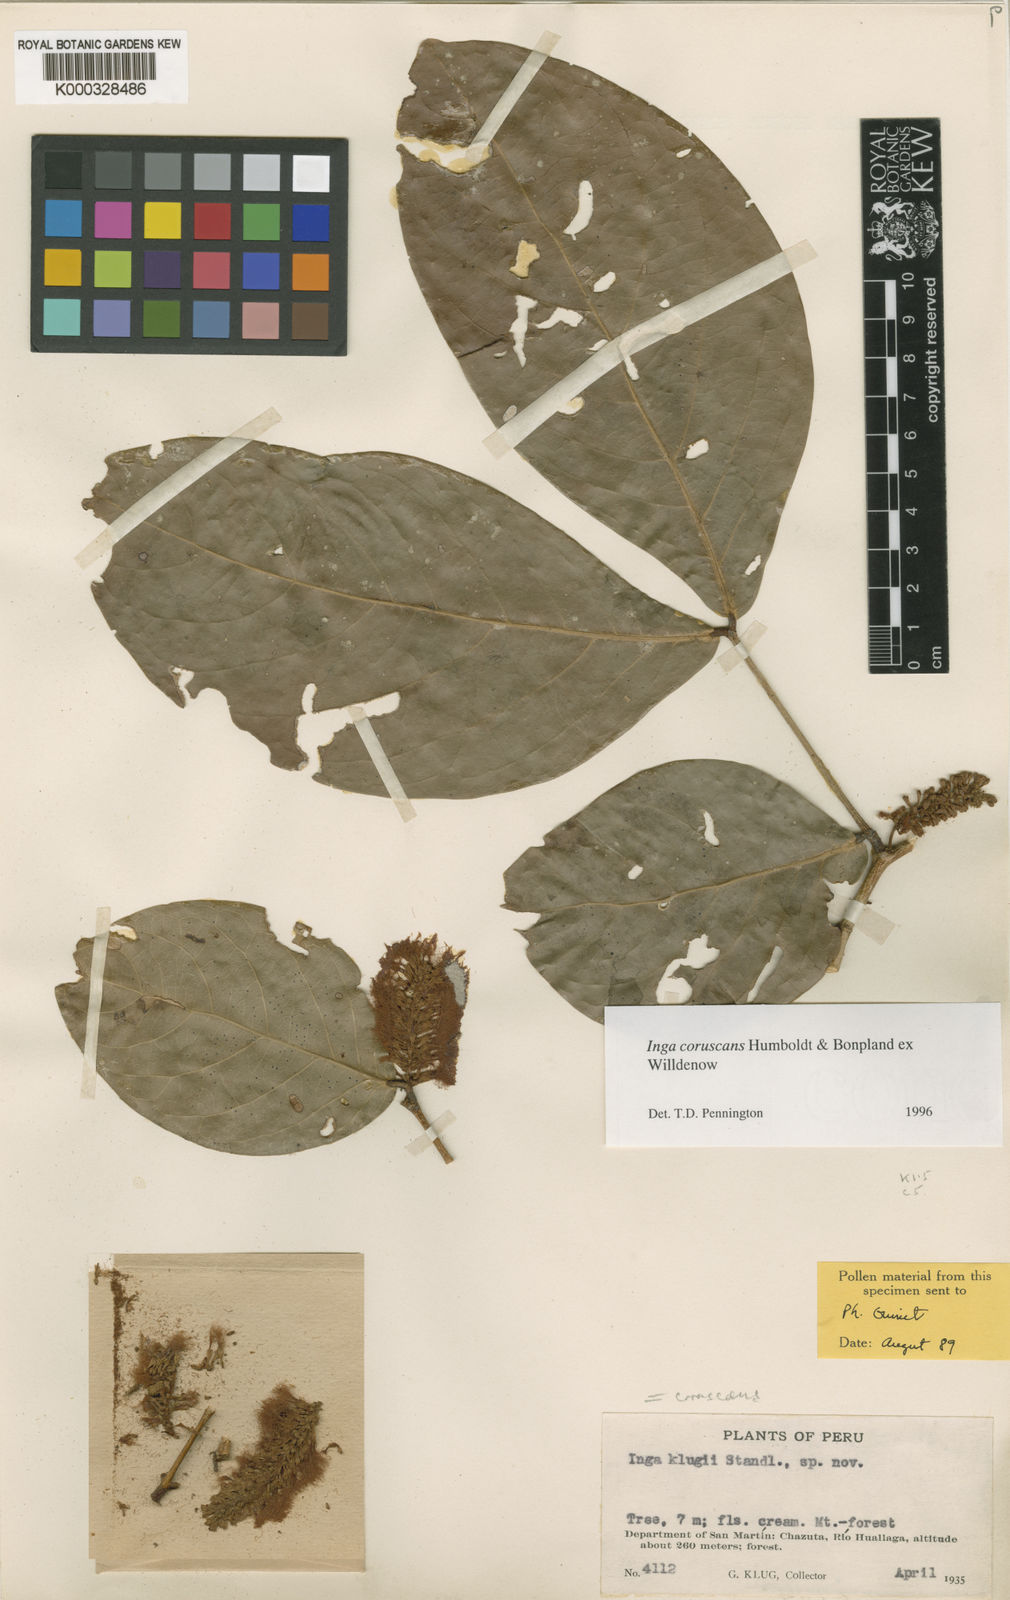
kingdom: Plantae
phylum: Tracheophyta
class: Magnoliopsida
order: Fabales
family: Fabaceae
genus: Inga
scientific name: Inga coruscans
